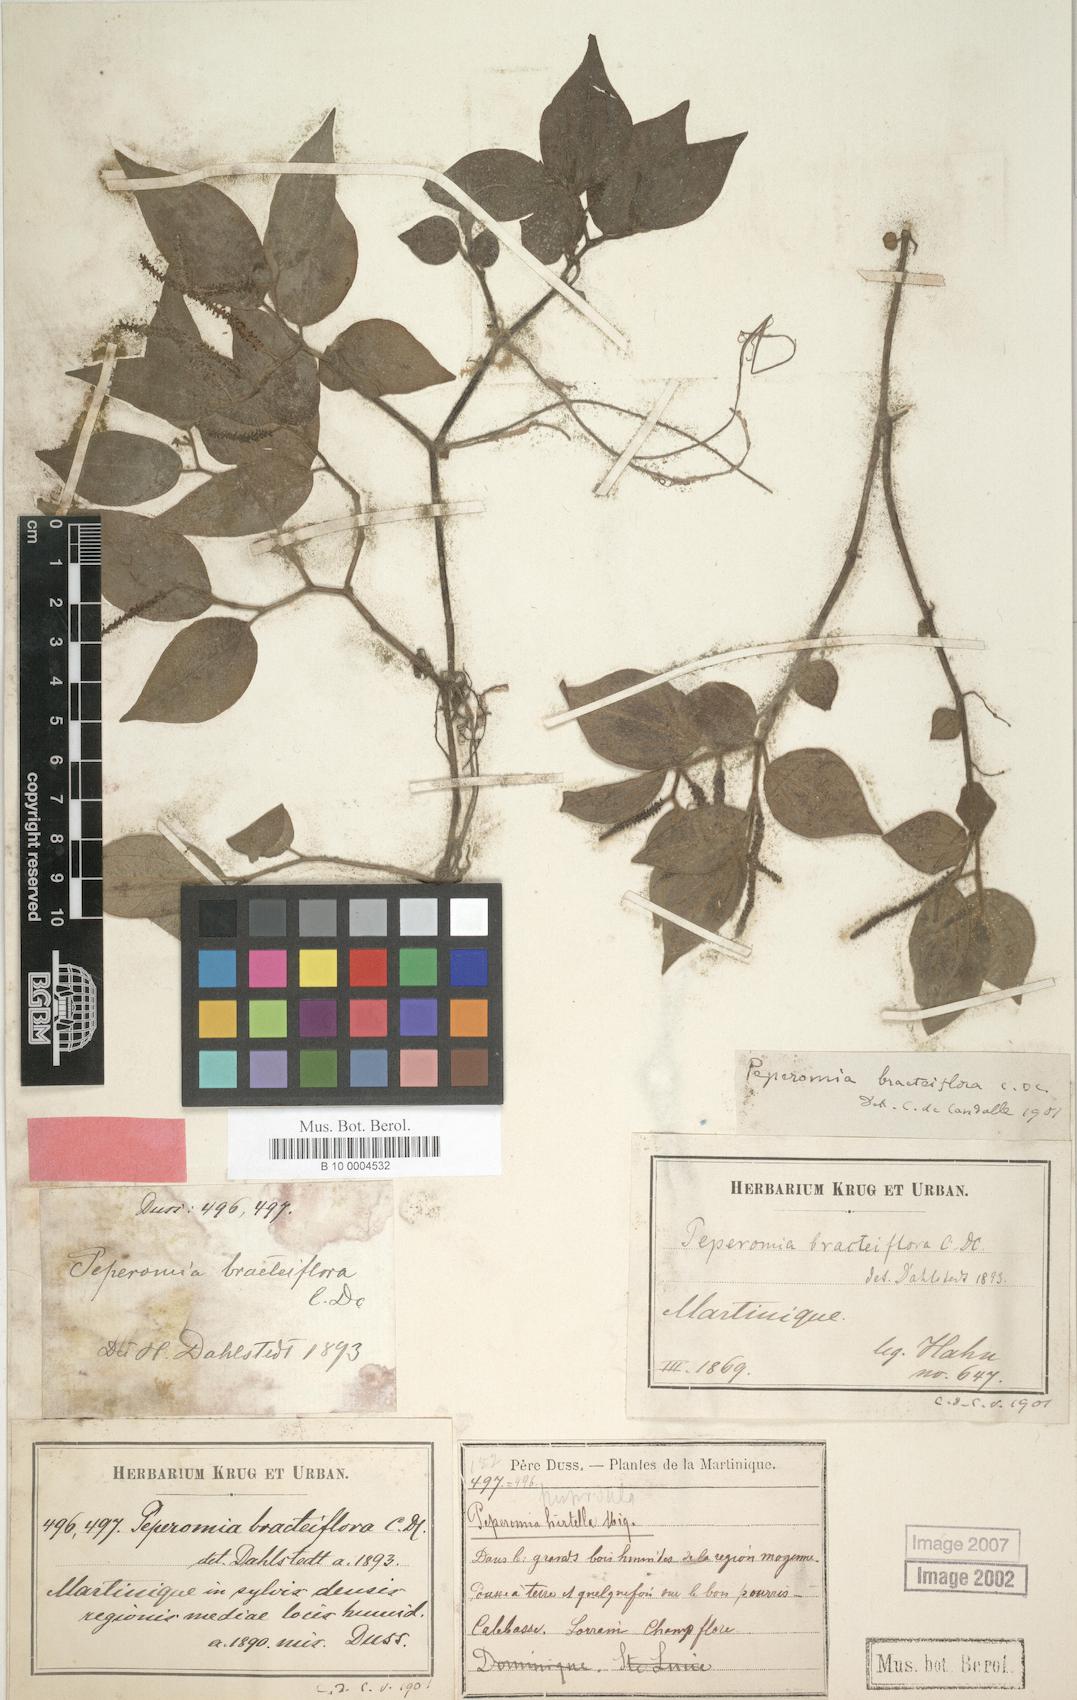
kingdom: Plantae
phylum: Tracheophyta
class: Magnoliopsida
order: Piperales
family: Piperaceae
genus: Peperomia
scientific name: Peperomia hirtella
